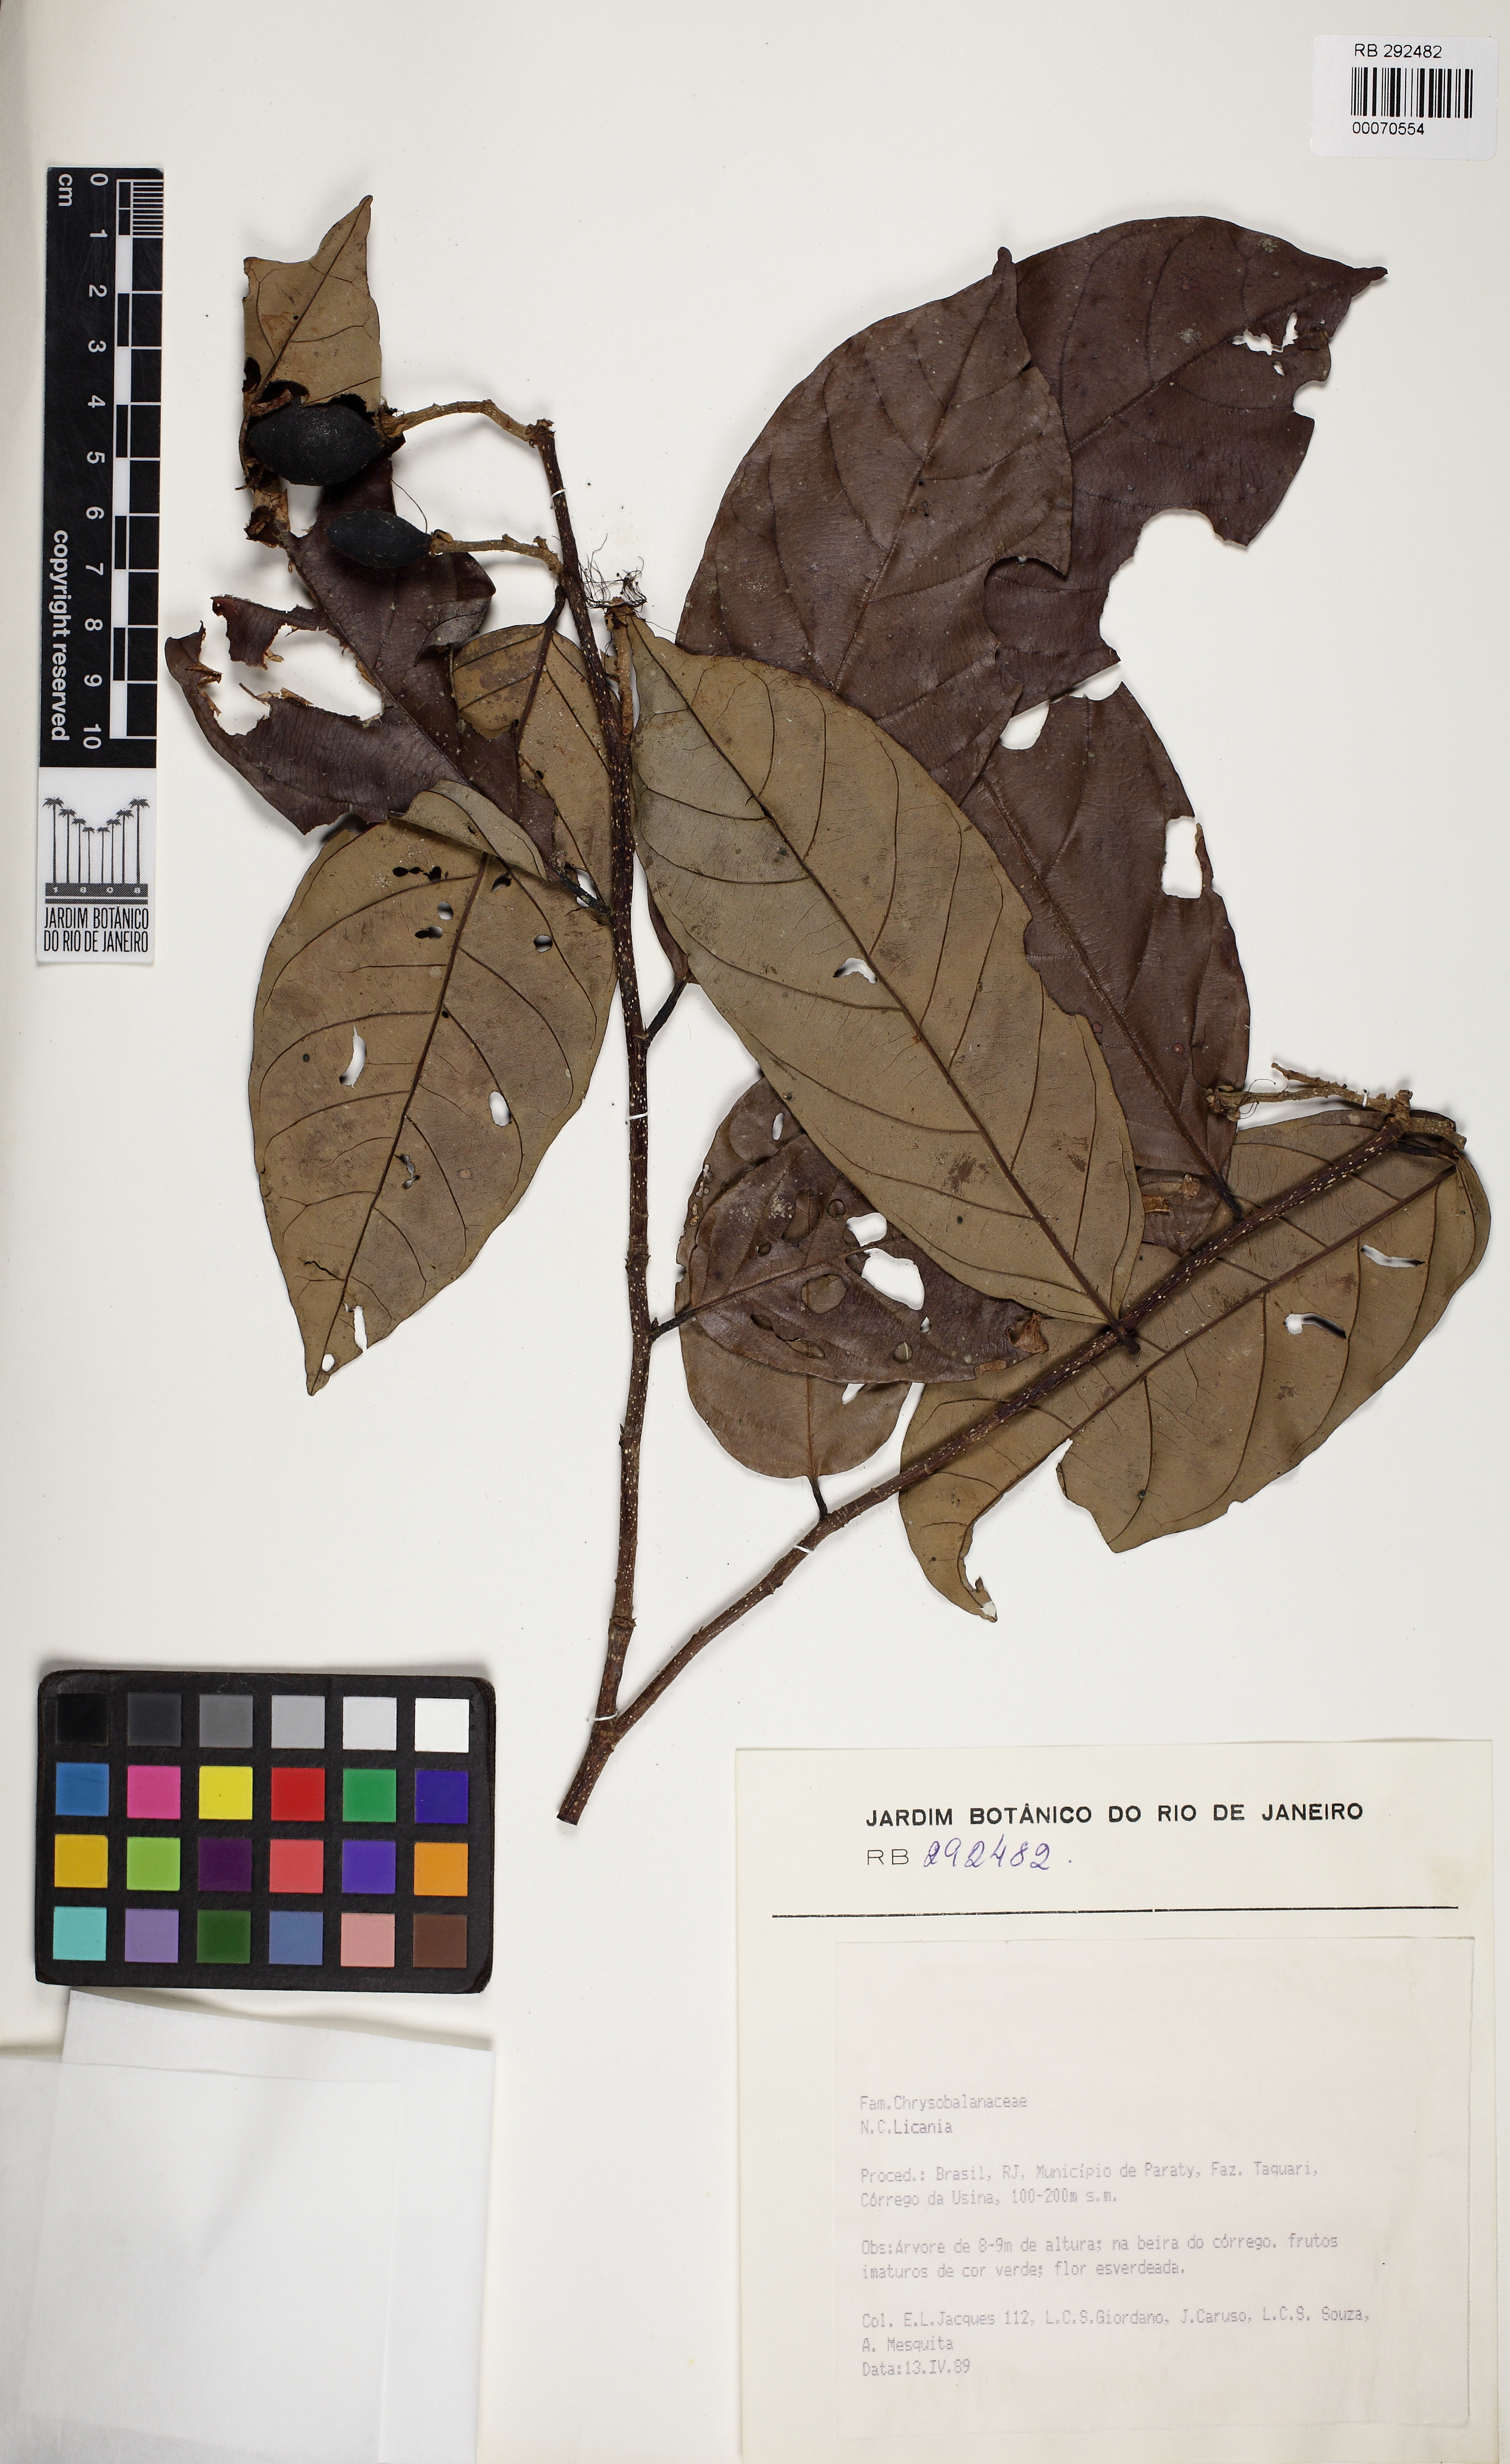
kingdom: Plantae
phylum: Tracheophyta
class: Magnoliopsida
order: Malpighiales
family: Chrysobalanaceae
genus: Couepia
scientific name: Couepia
